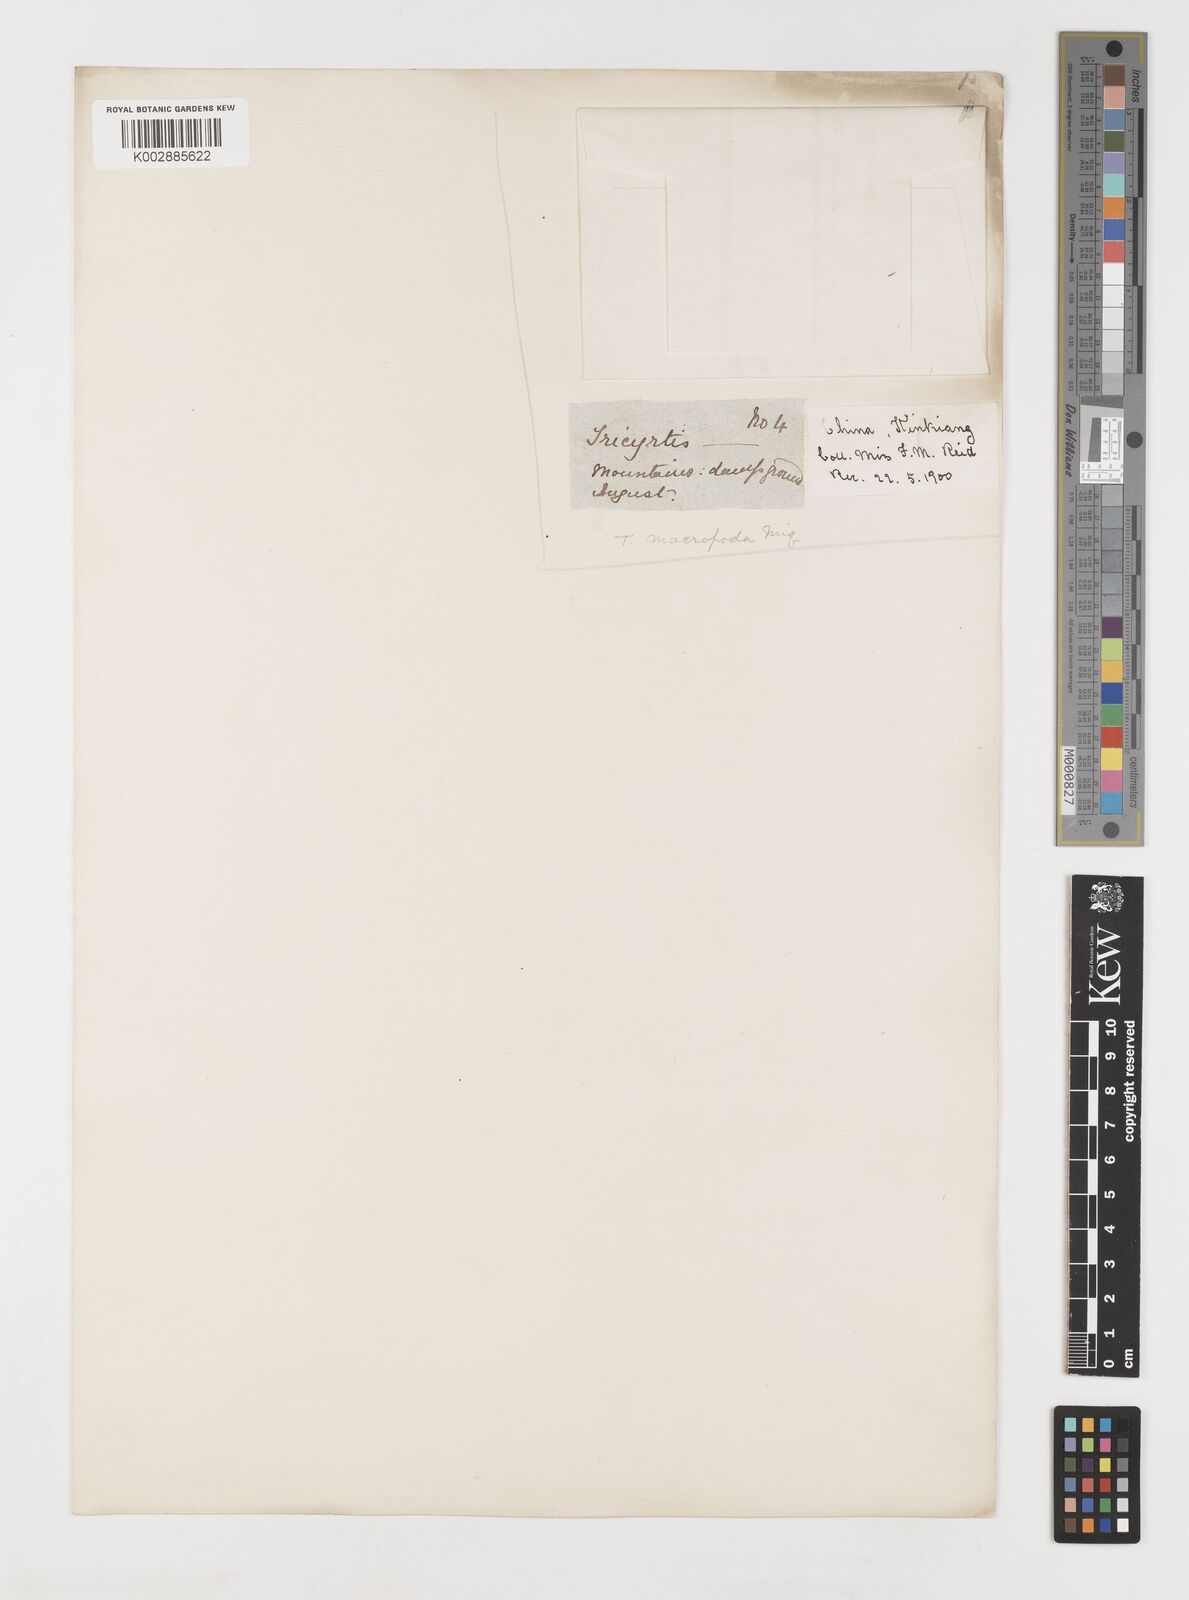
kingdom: Plantae
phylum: Tracheophyta
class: Liliopsida
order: Liliales
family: Liliaceae
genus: Tricyrtis
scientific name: Tricyrtis latifolia
